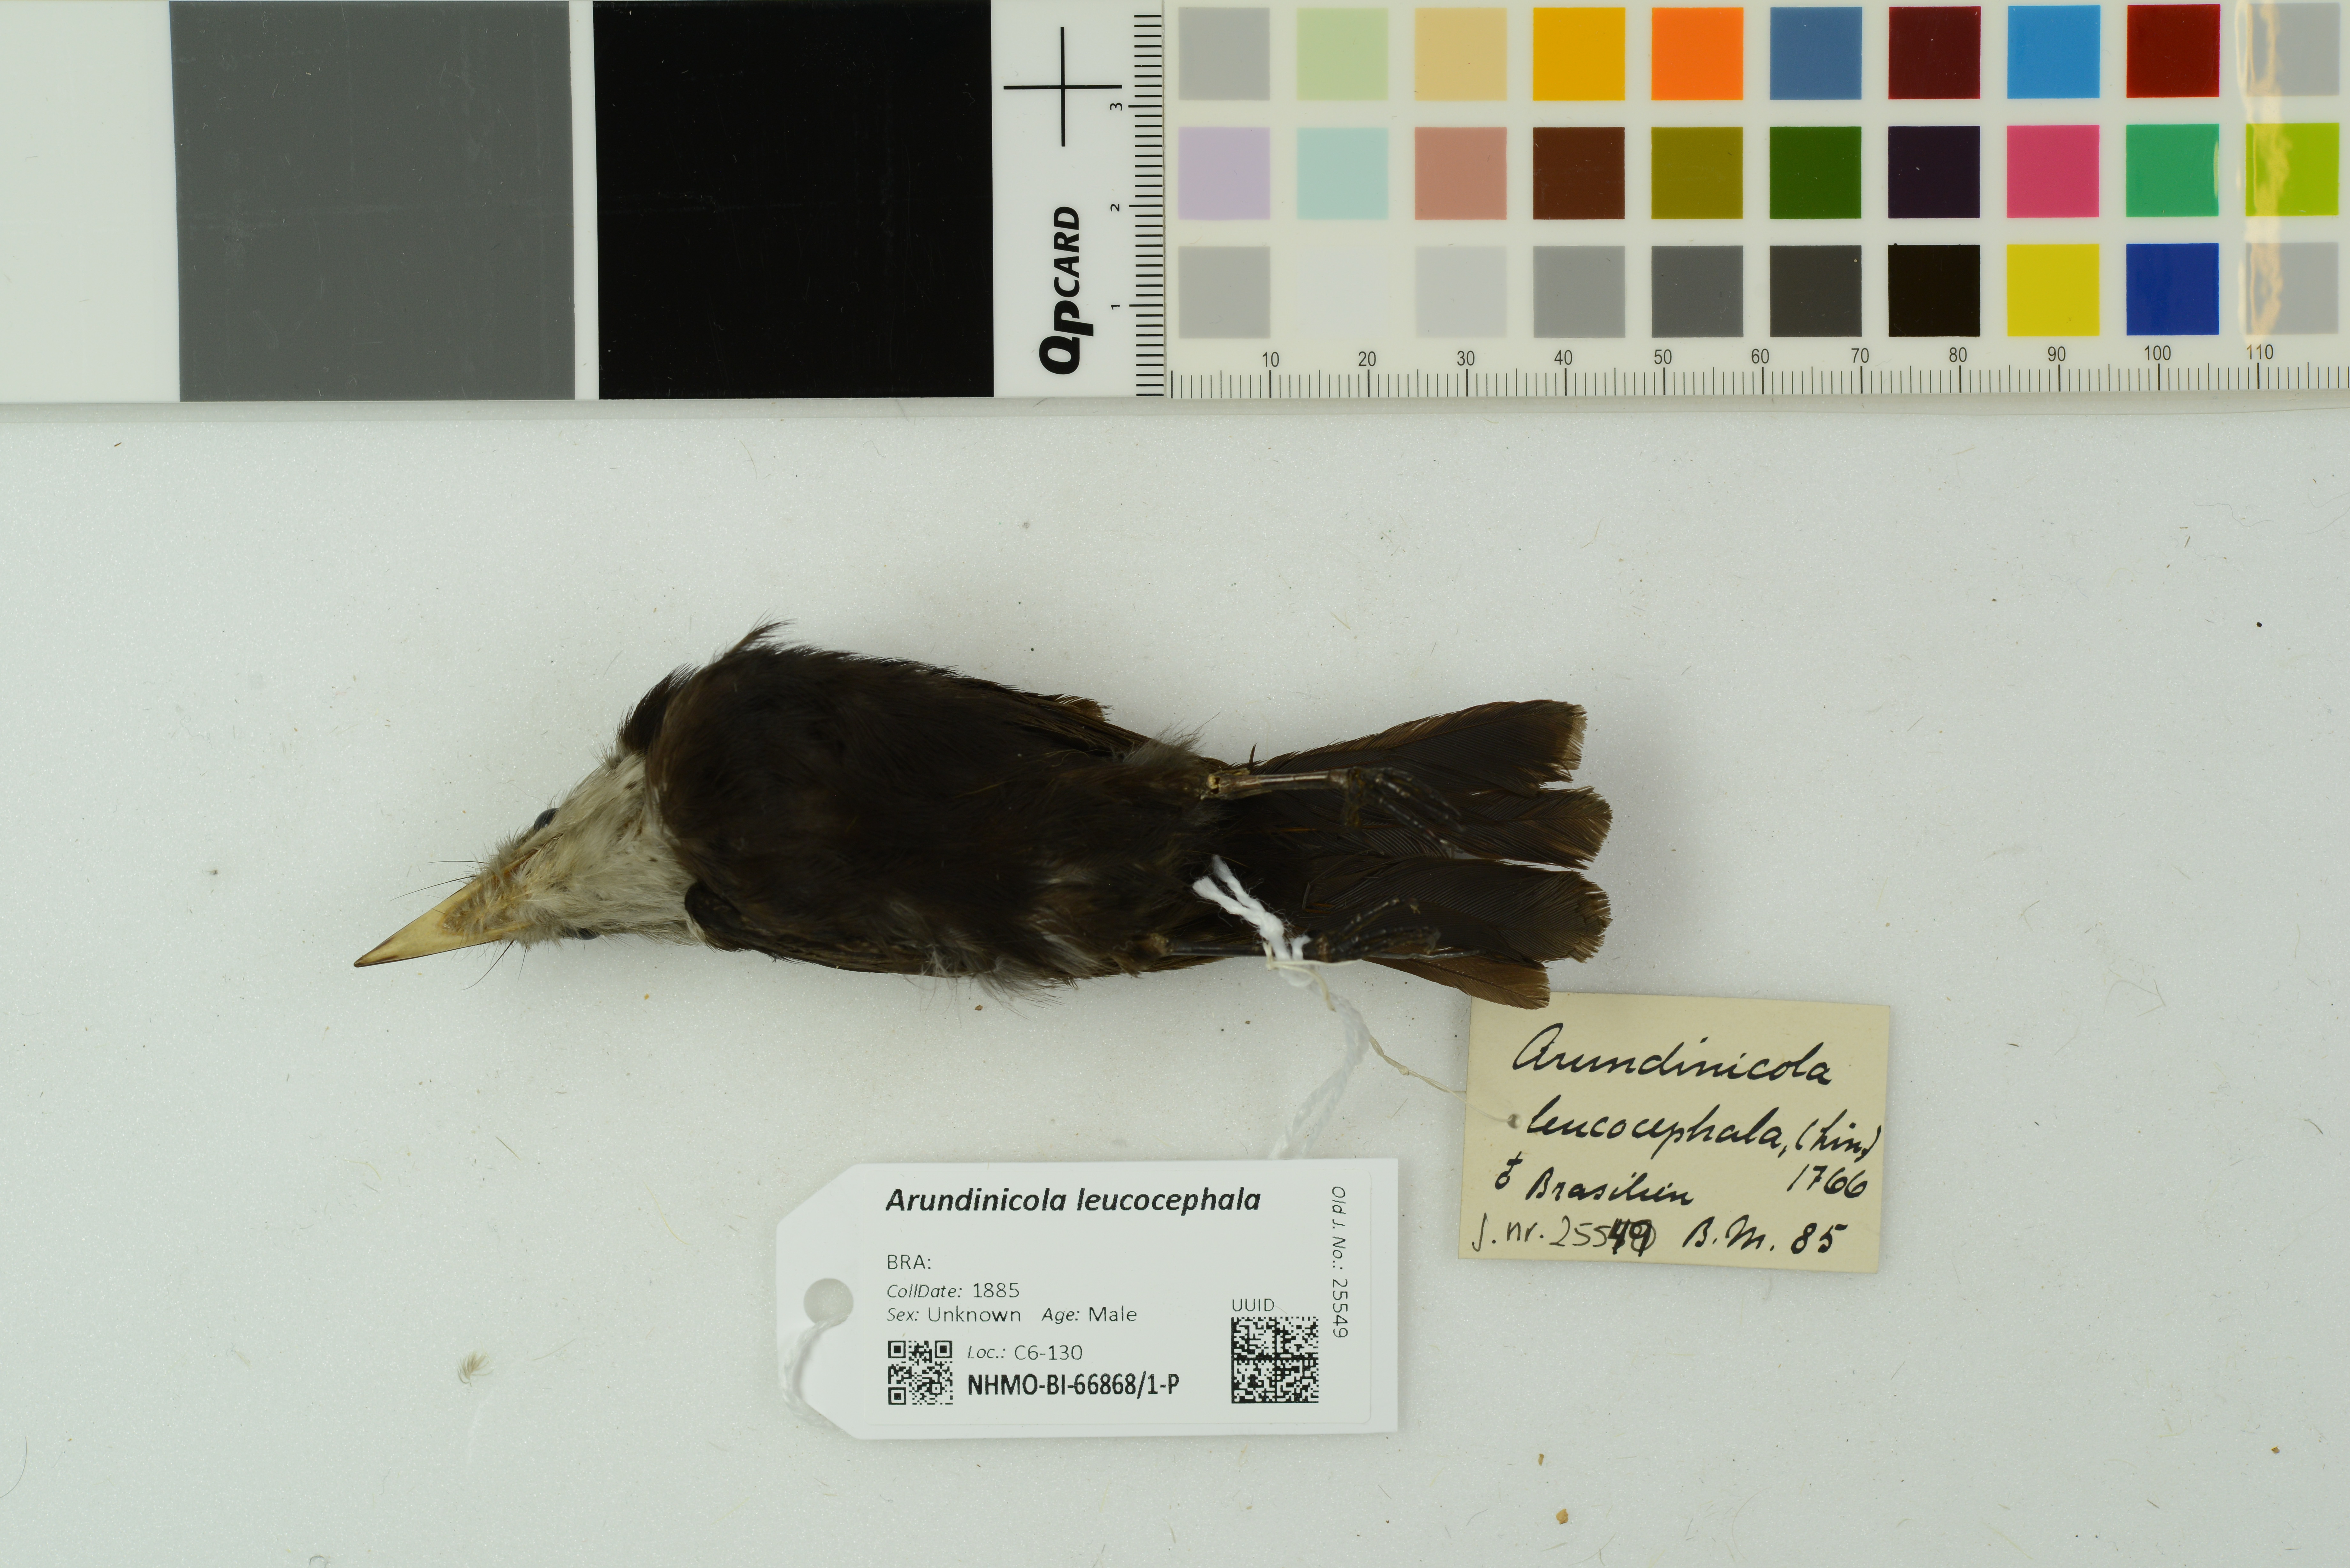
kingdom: Animalia
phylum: Chordata
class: Aves
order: Passeriformes
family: Tyrannidae
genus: Arundinicola
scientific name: Arundinicola leucocephala
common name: White-headed marsh tyrant
